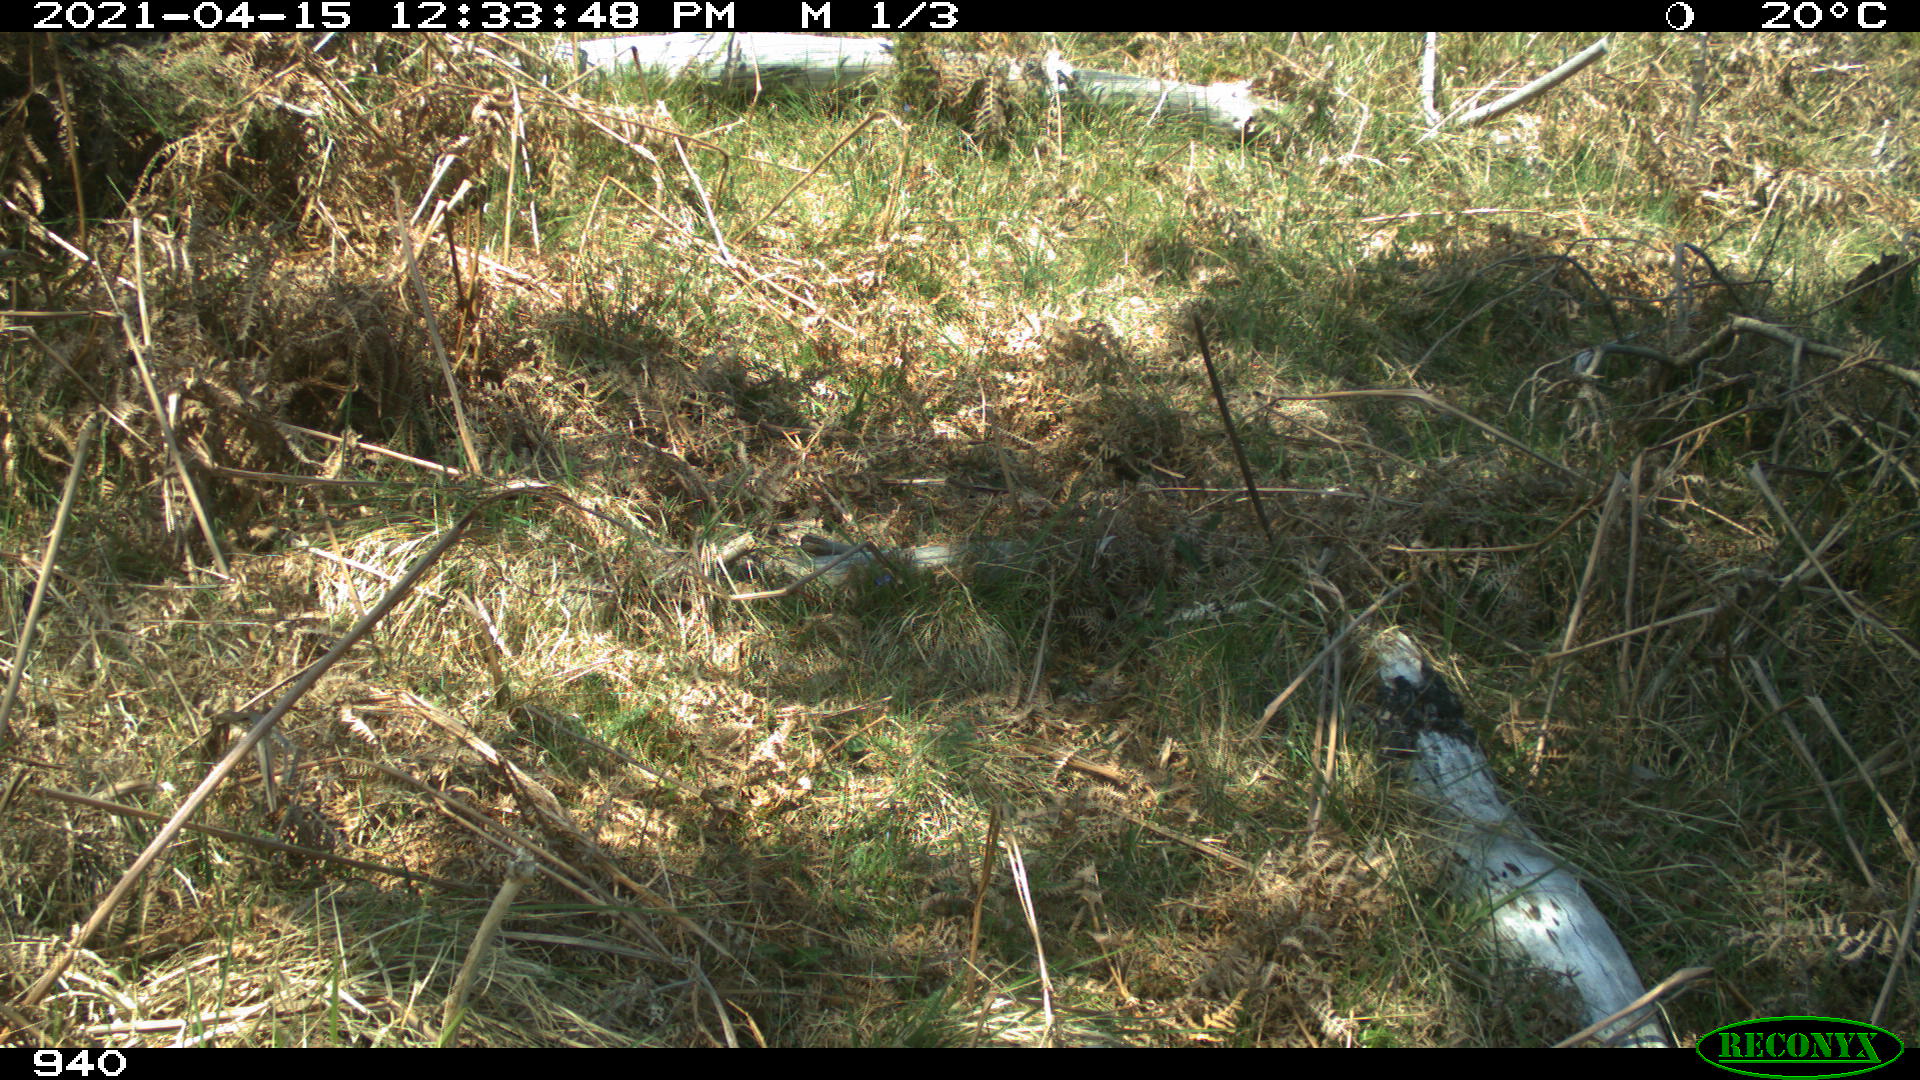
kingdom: Animalia
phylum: Chordata
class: Mammalia
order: Perissodactyla
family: Equidae
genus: Equus
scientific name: Equus caballus
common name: Horse
